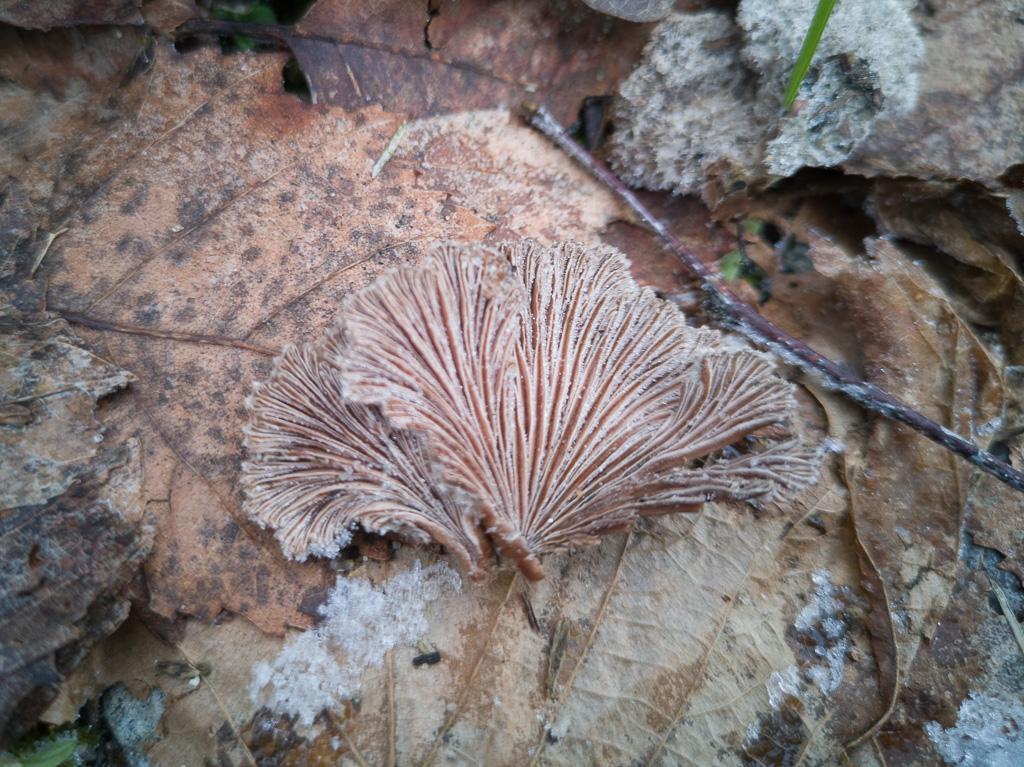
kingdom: Fungi
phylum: Basidiomycota
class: Agaricomycetes
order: Agaricales
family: Schizophyllaceae
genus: Schizophyllum
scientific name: Schizophyllum commune
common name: kløvblad
